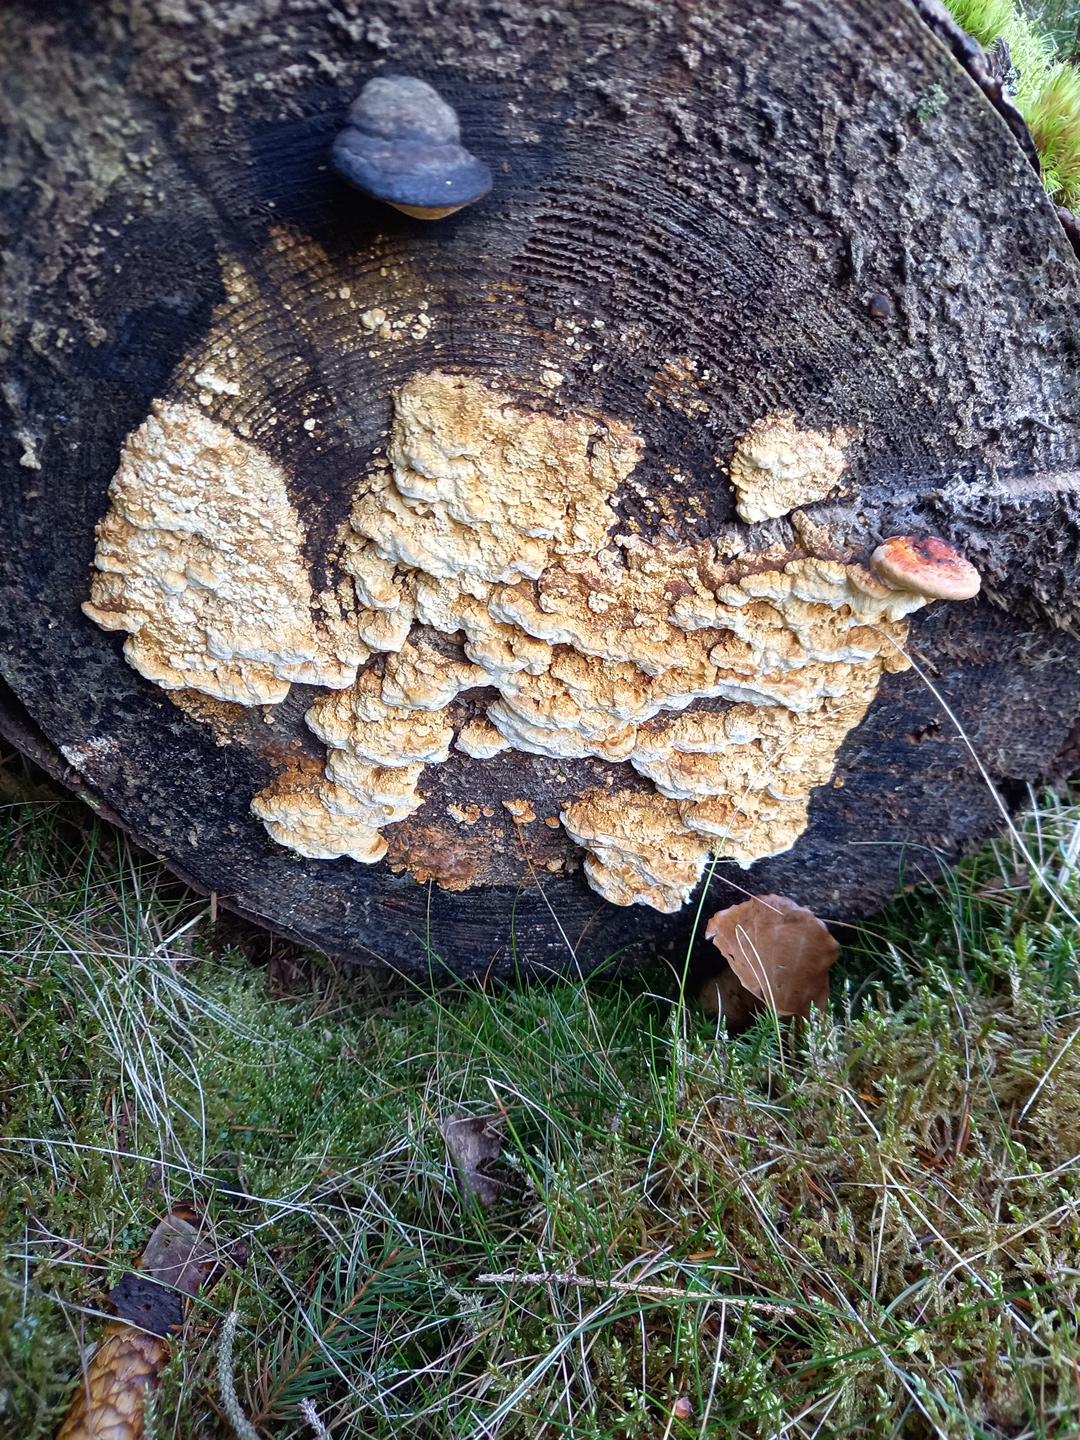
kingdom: Fungi
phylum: Basidiomycota
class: Agaricomycetes
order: Polyporales
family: Fomitopsidaceae
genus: Neoantrodia
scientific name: Neoantrodia serialis
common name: række-sejporesvamp
